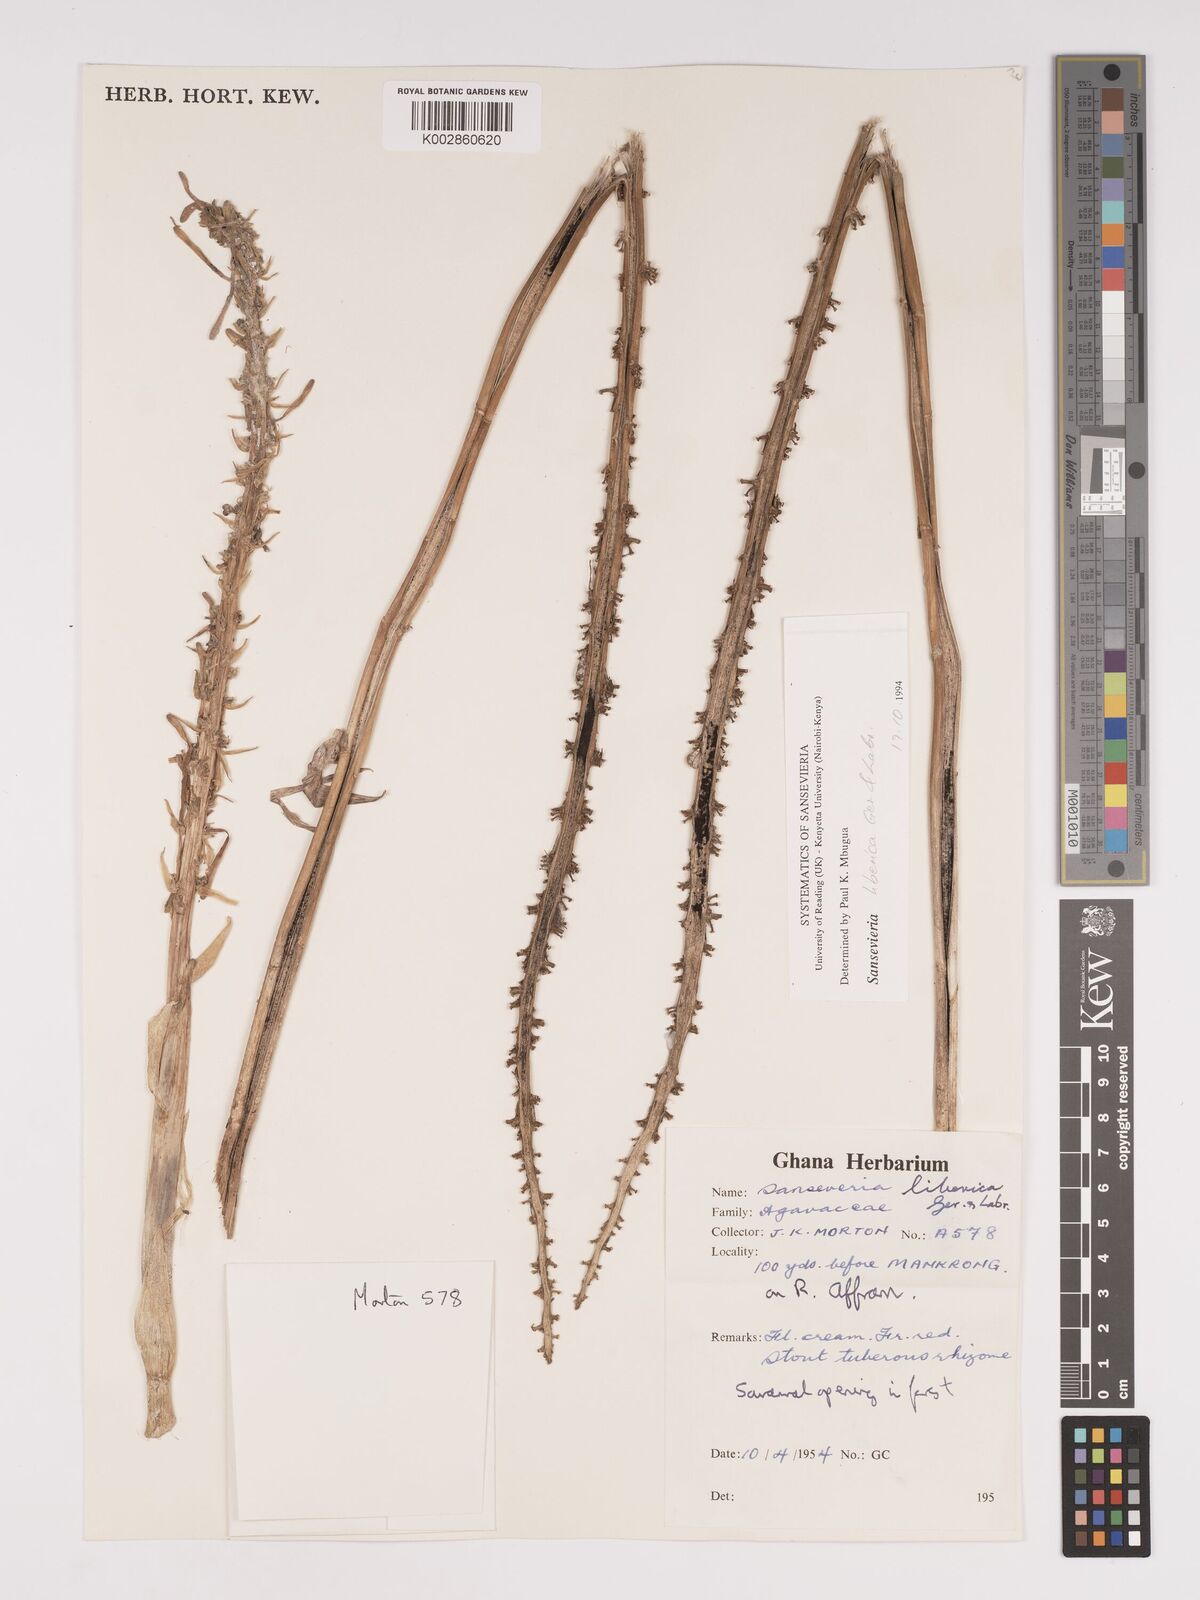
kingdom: Plantae
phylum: Tracheophyta
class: Liliopsida
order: Asparagales
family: Asparagaceae
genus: Dracaena
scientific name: Dracaena liberica
